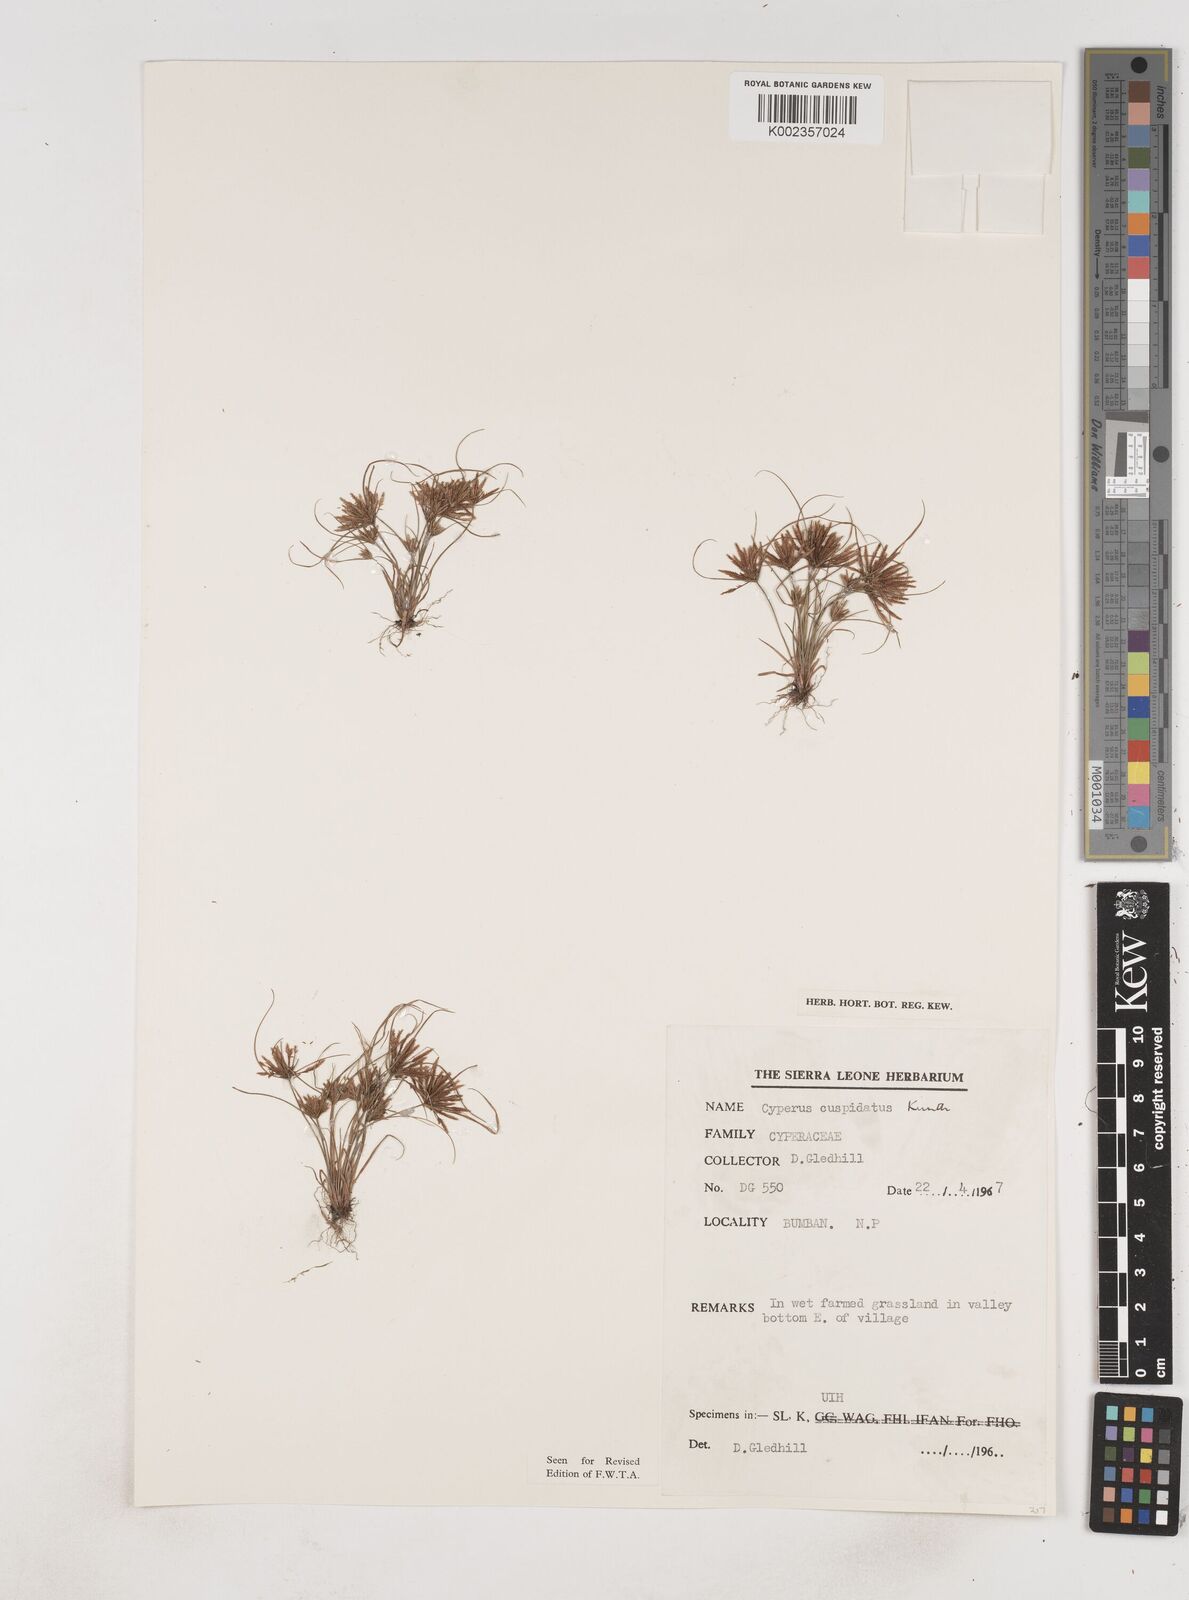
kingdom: Plantae
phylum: Tracheophyta
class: Liliopsida
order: Poales
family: Cyperaceae
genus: Cyperus
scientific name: Cyperus
